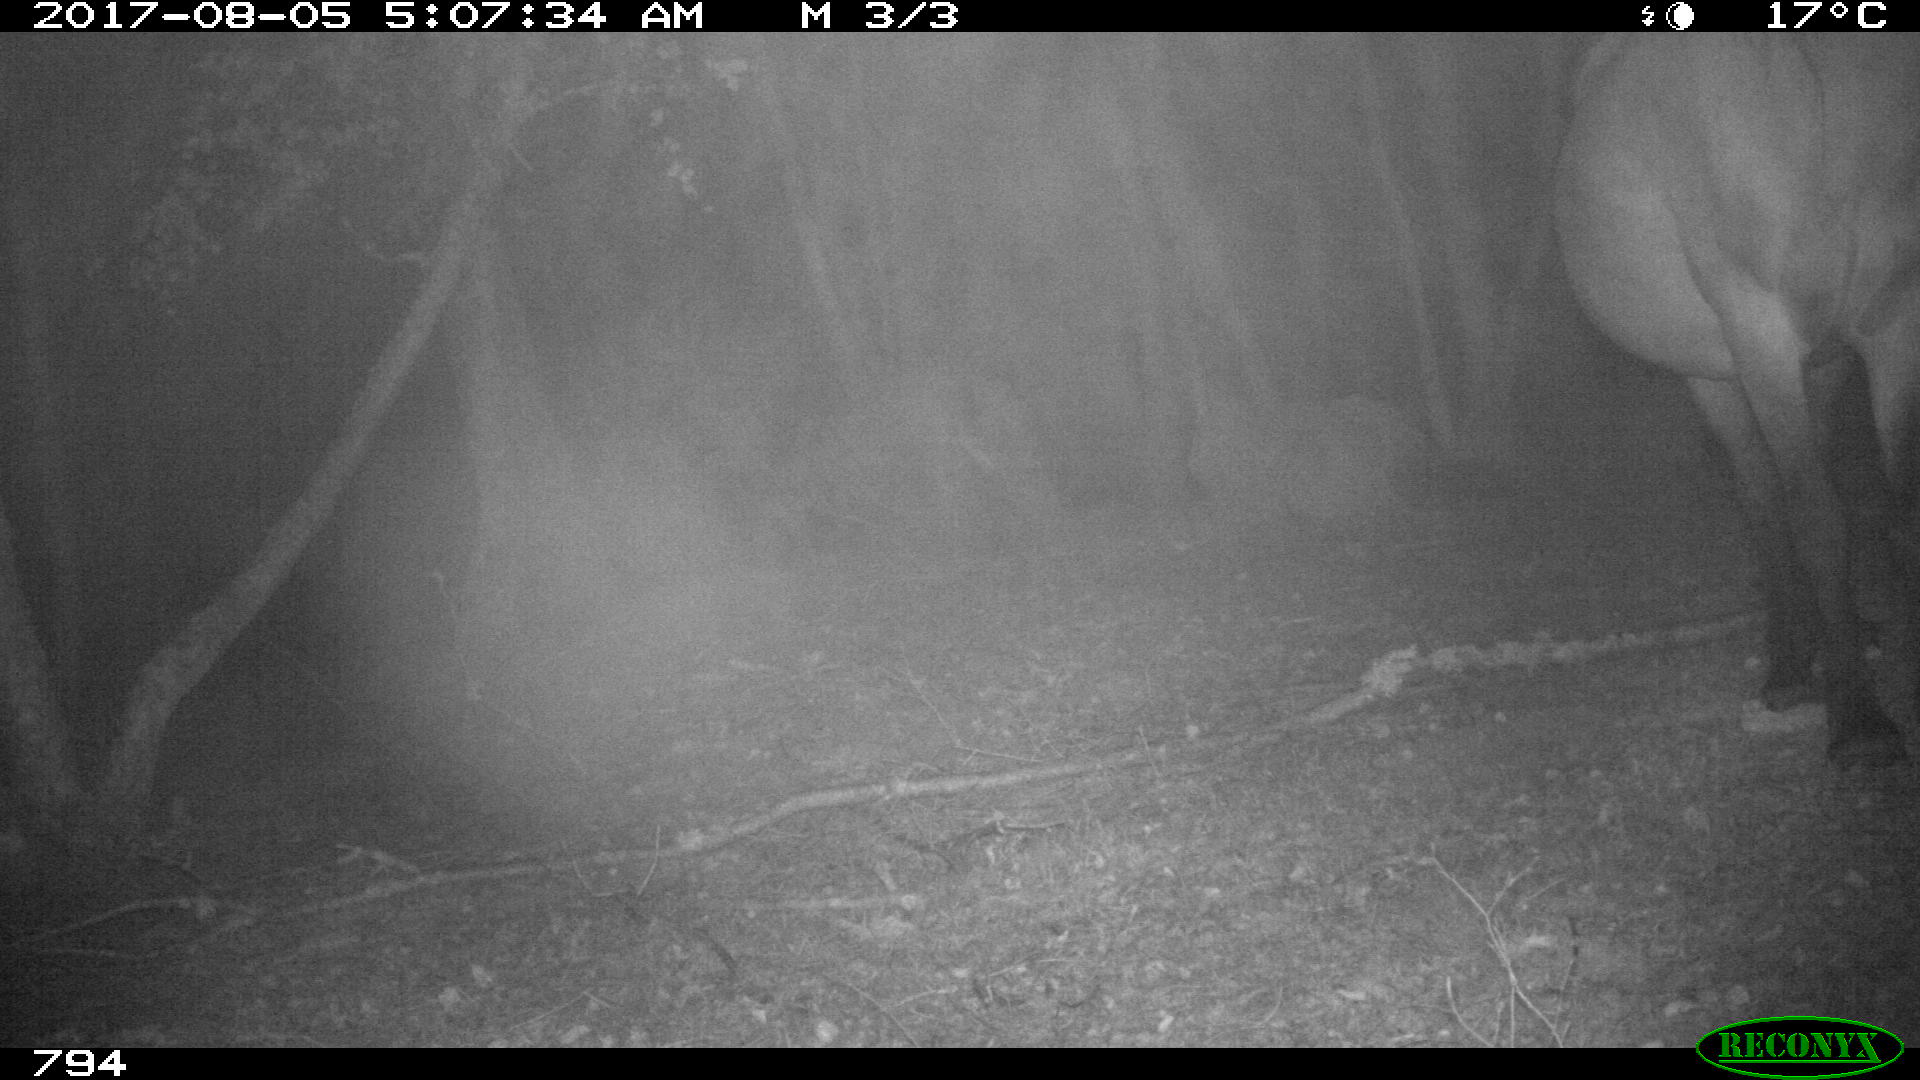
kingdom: Animalia
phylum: Chordata
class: Mammalia
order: Perissodactyla
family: Equidae
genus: Equus
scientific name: Equus caballus
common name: Horse
